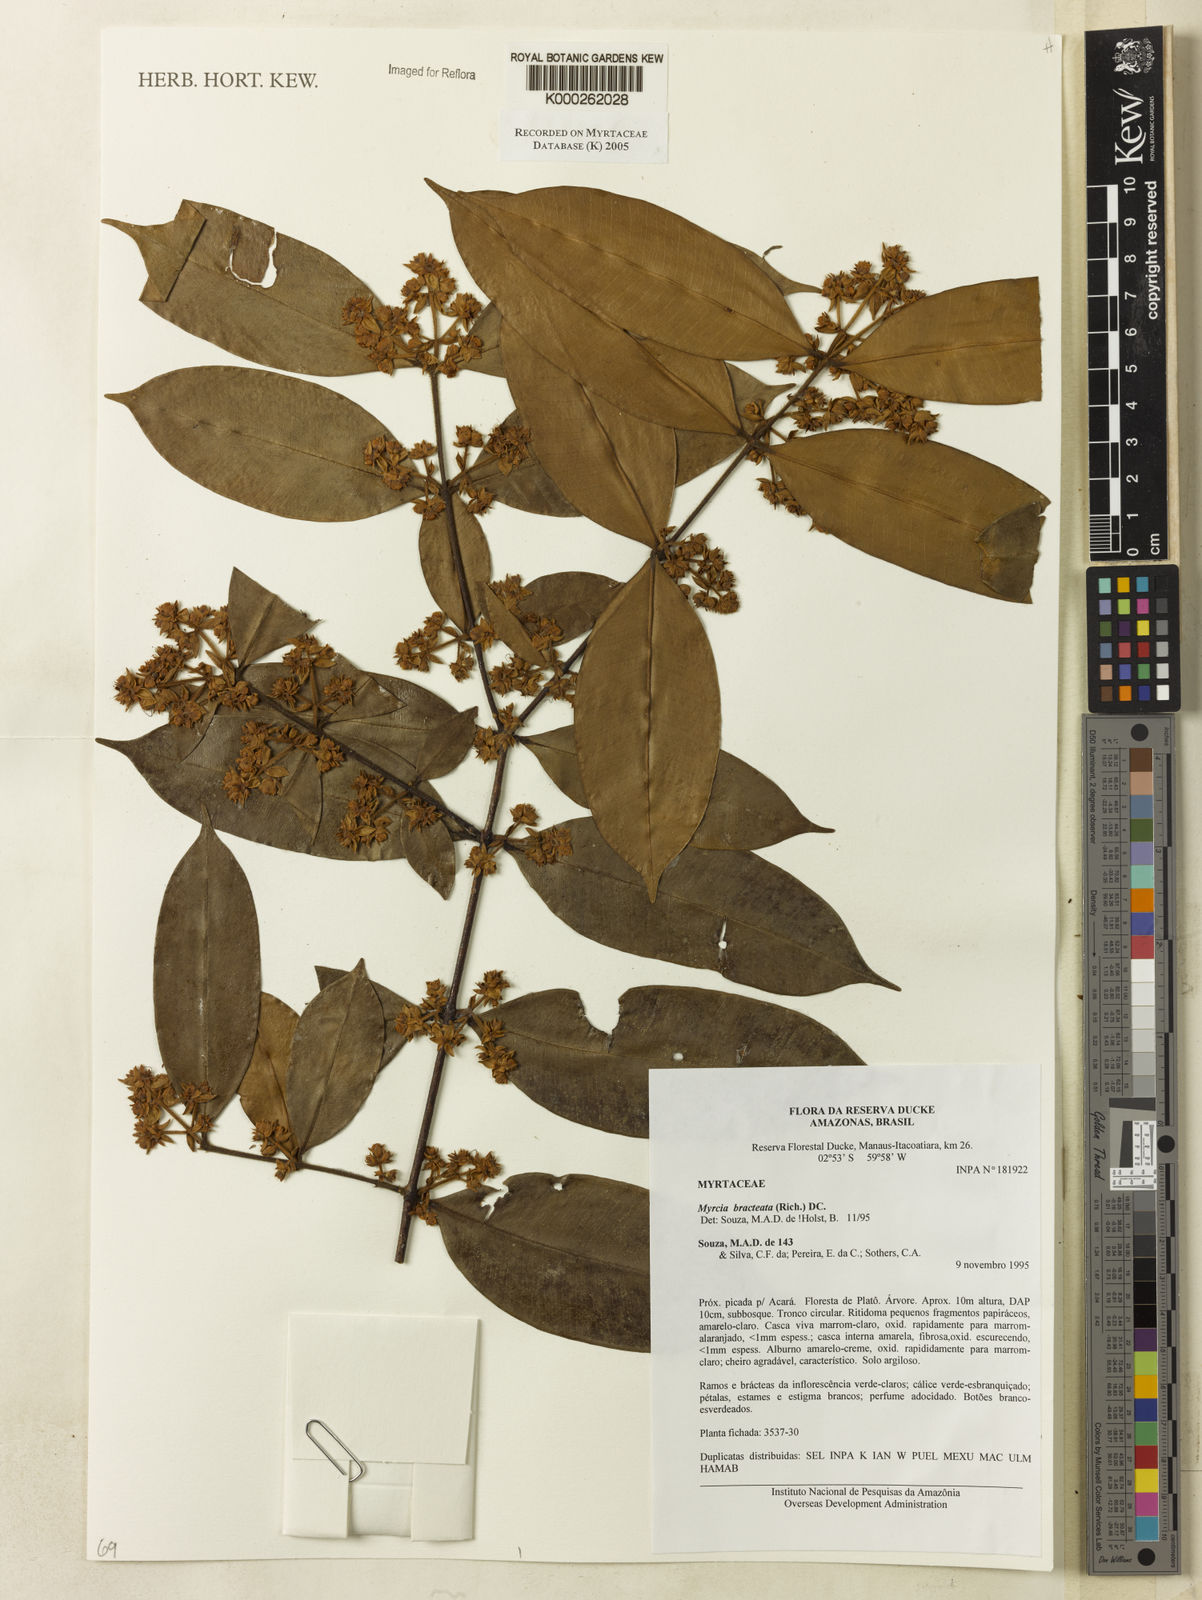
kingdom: Plantae
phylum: Tracheophyta
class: Magnoliopsida
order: Myrtales
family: Myrtaceae
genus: Myrcia
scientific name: Myrcia bracteata
